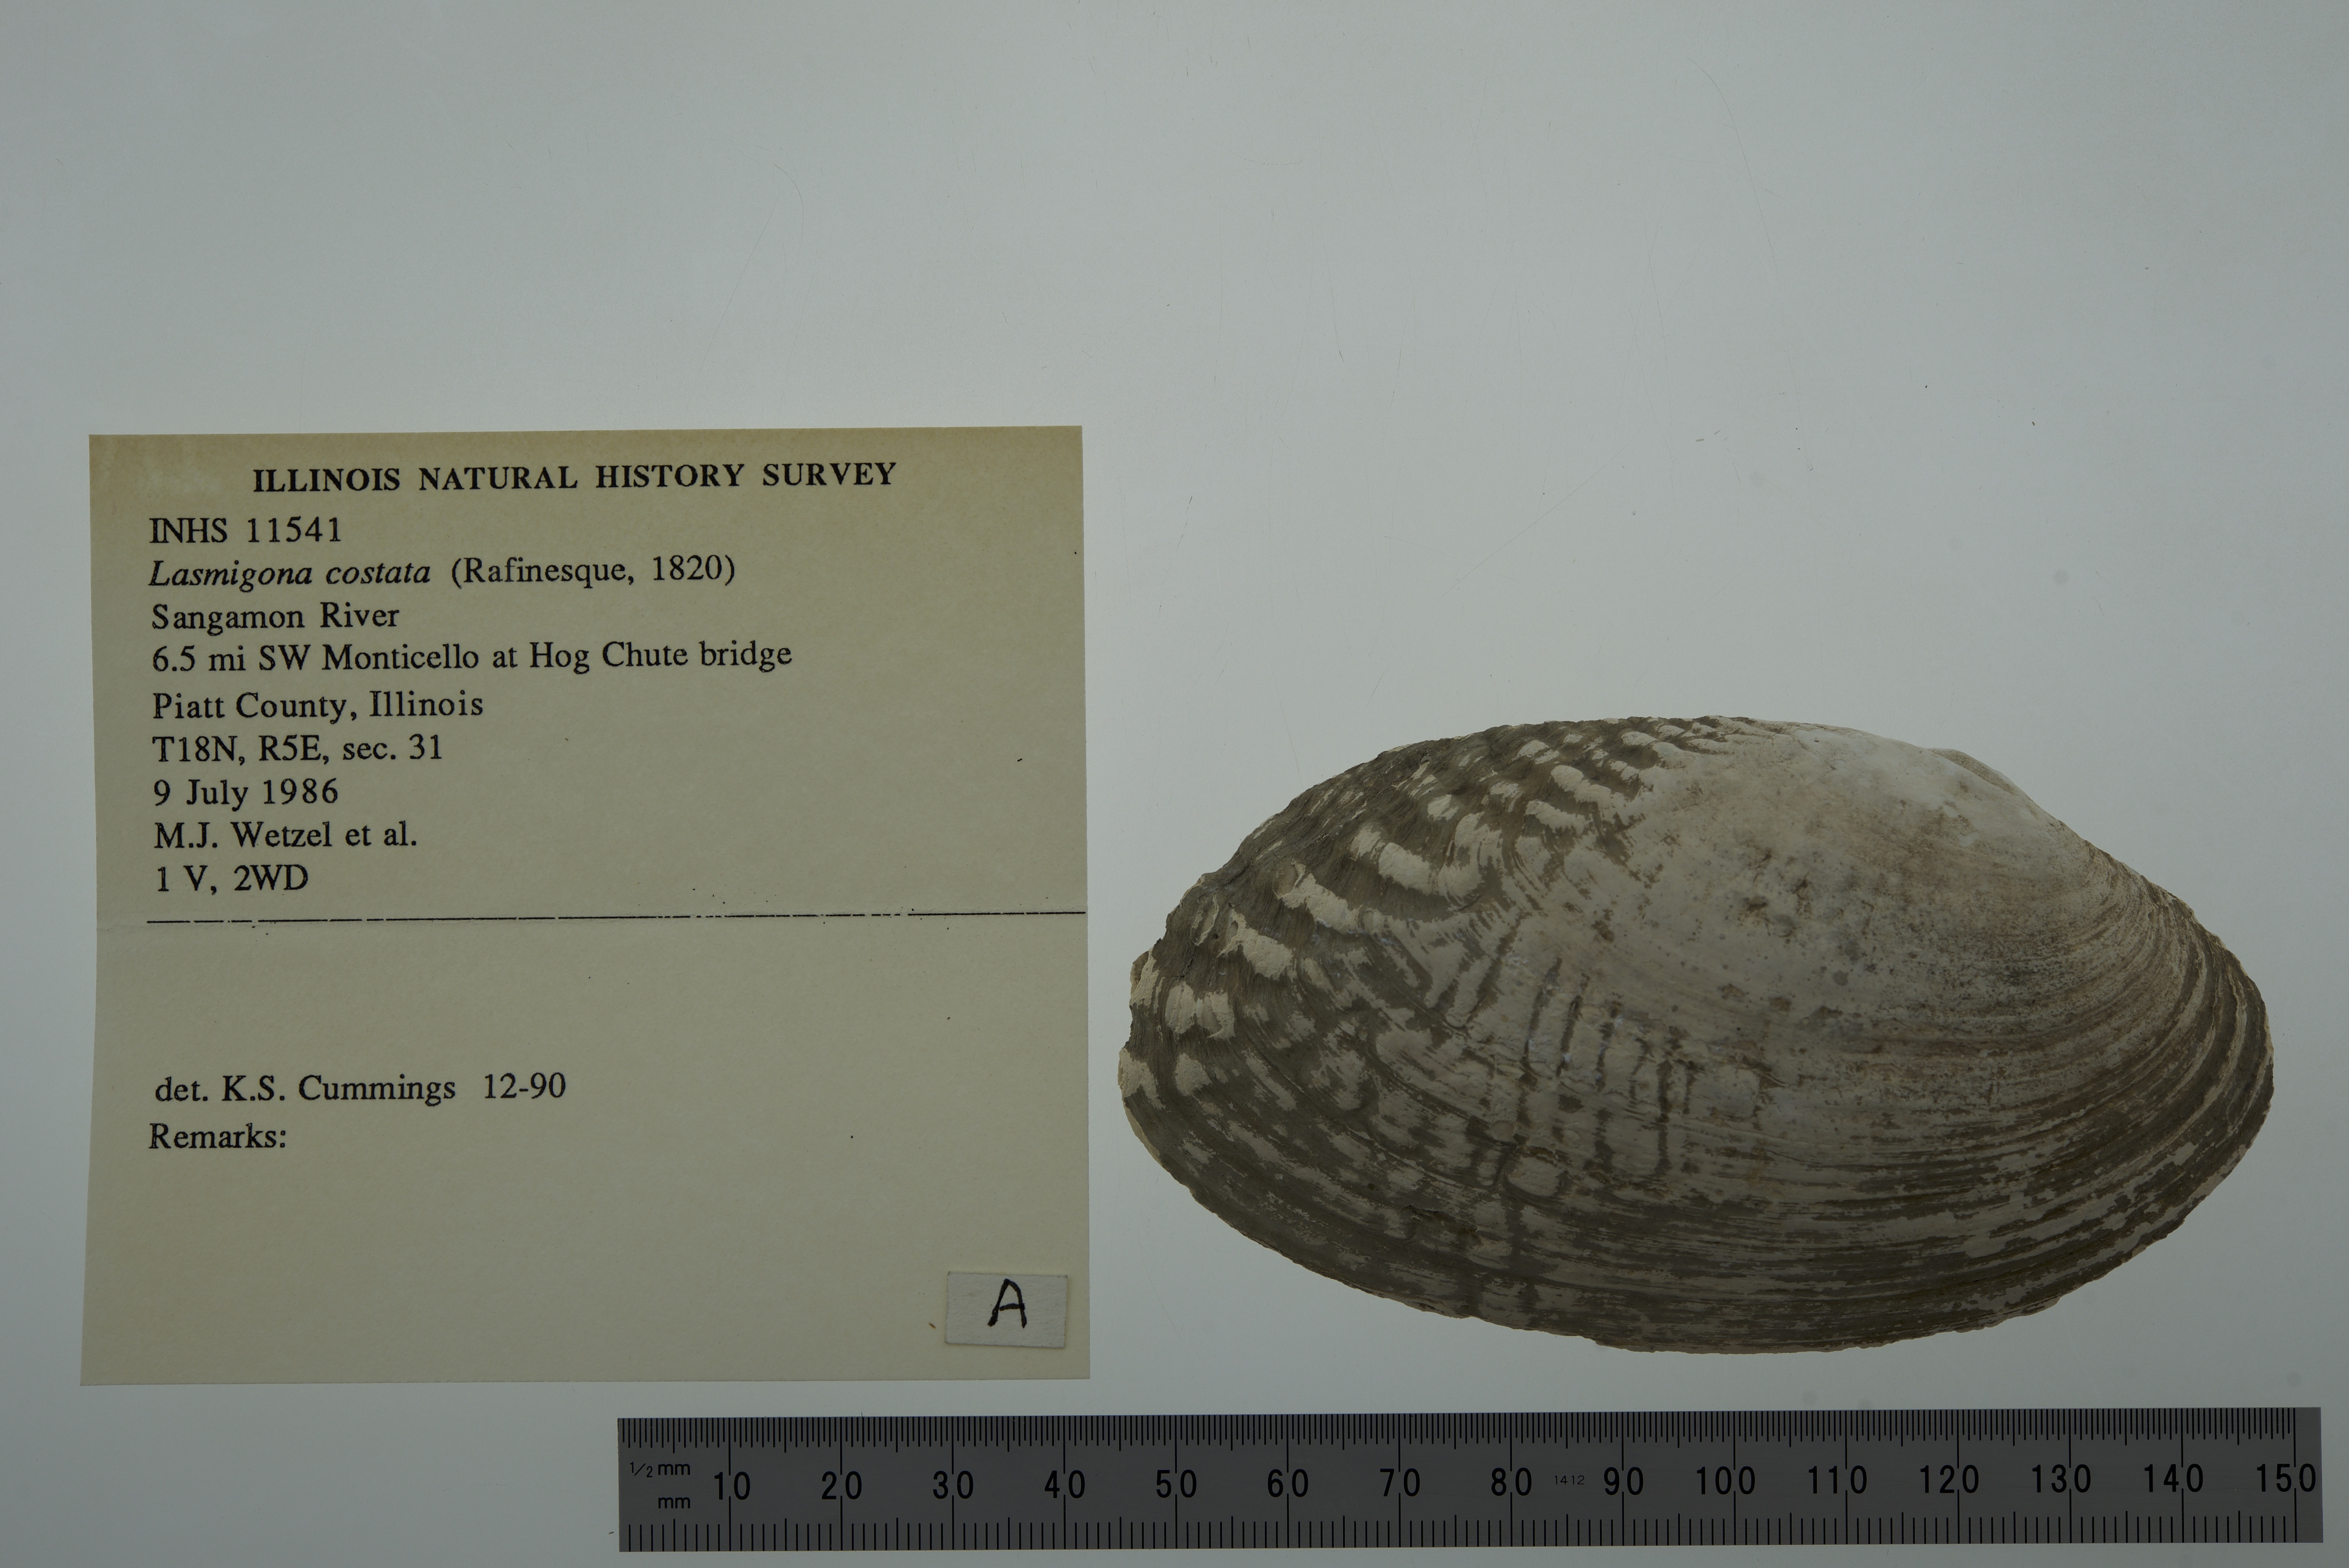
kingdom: Animalia
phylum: Mollusca
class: Bivalvia
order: Unionida
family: Unionidae
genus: Lasmigona
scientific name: Lasmigona costata
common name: Flutedshell
